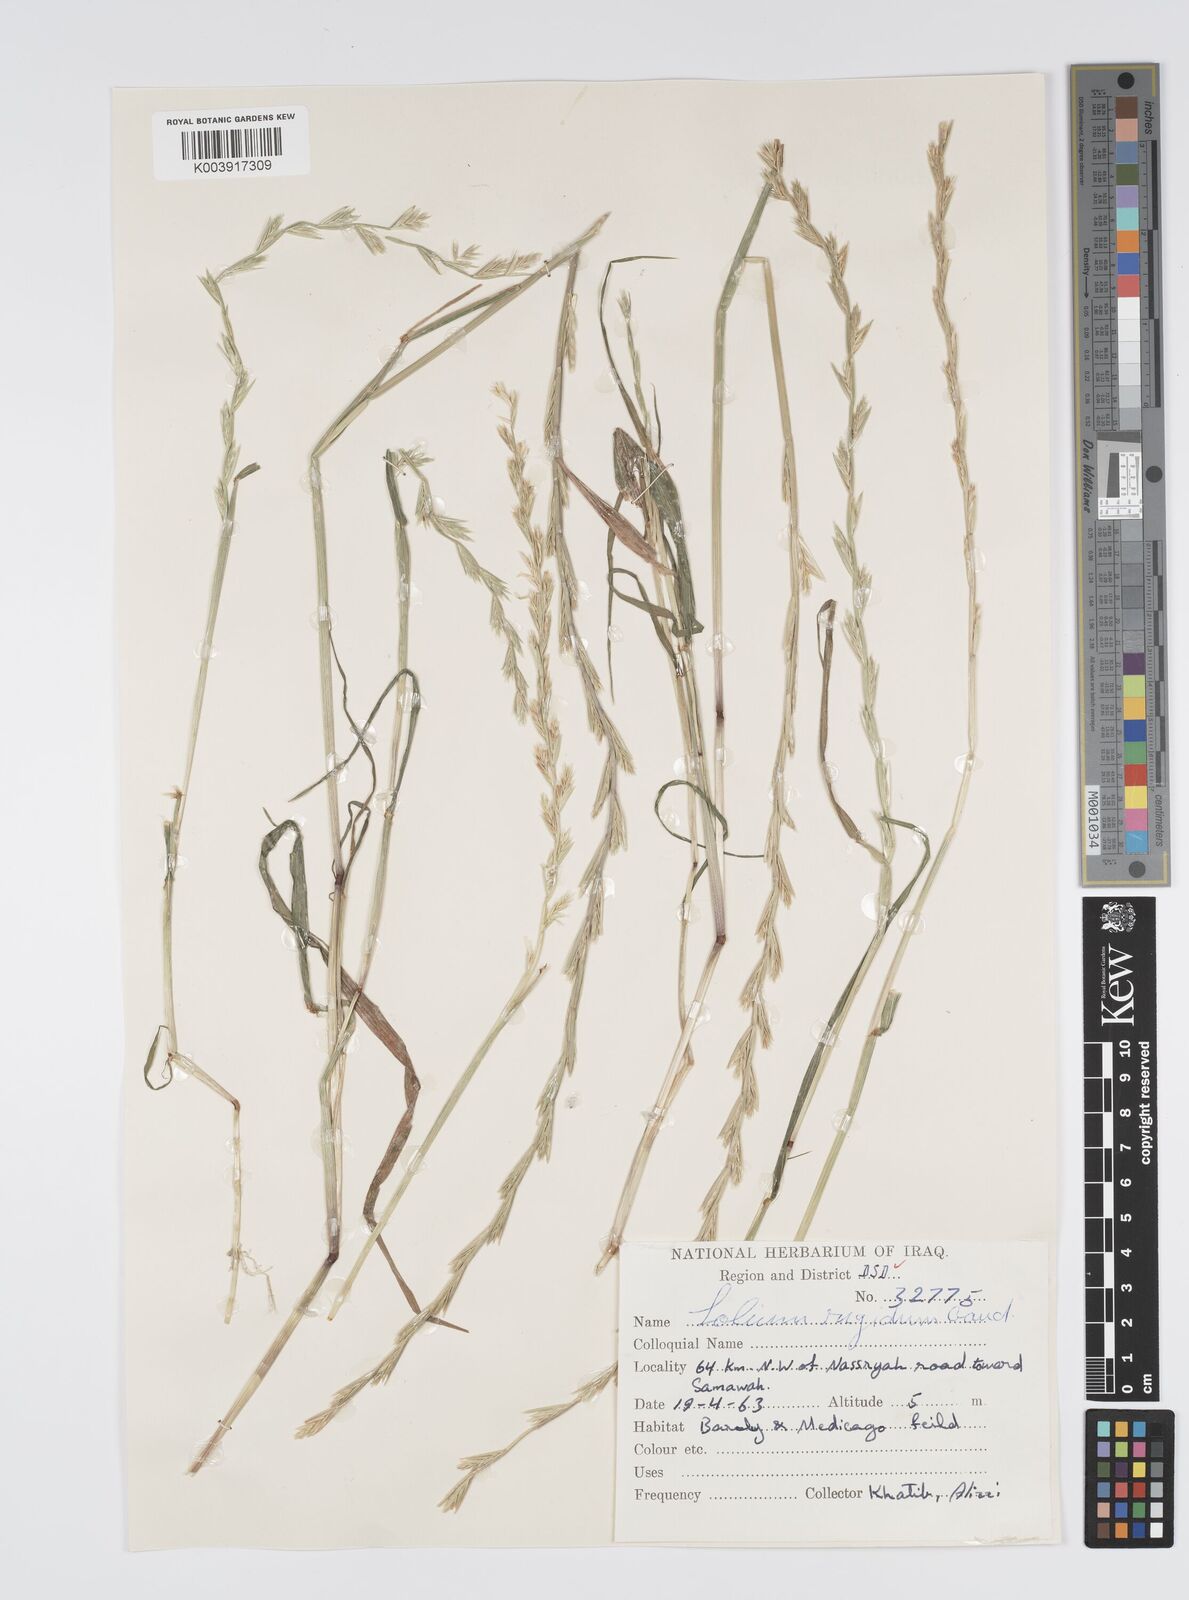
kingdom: Plantae
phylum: Tracheophyta
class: Liliopsida
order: Poales
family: Poaceae
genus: Lolium
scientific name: Lolium rigidum
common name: Wimmera ryegrass
